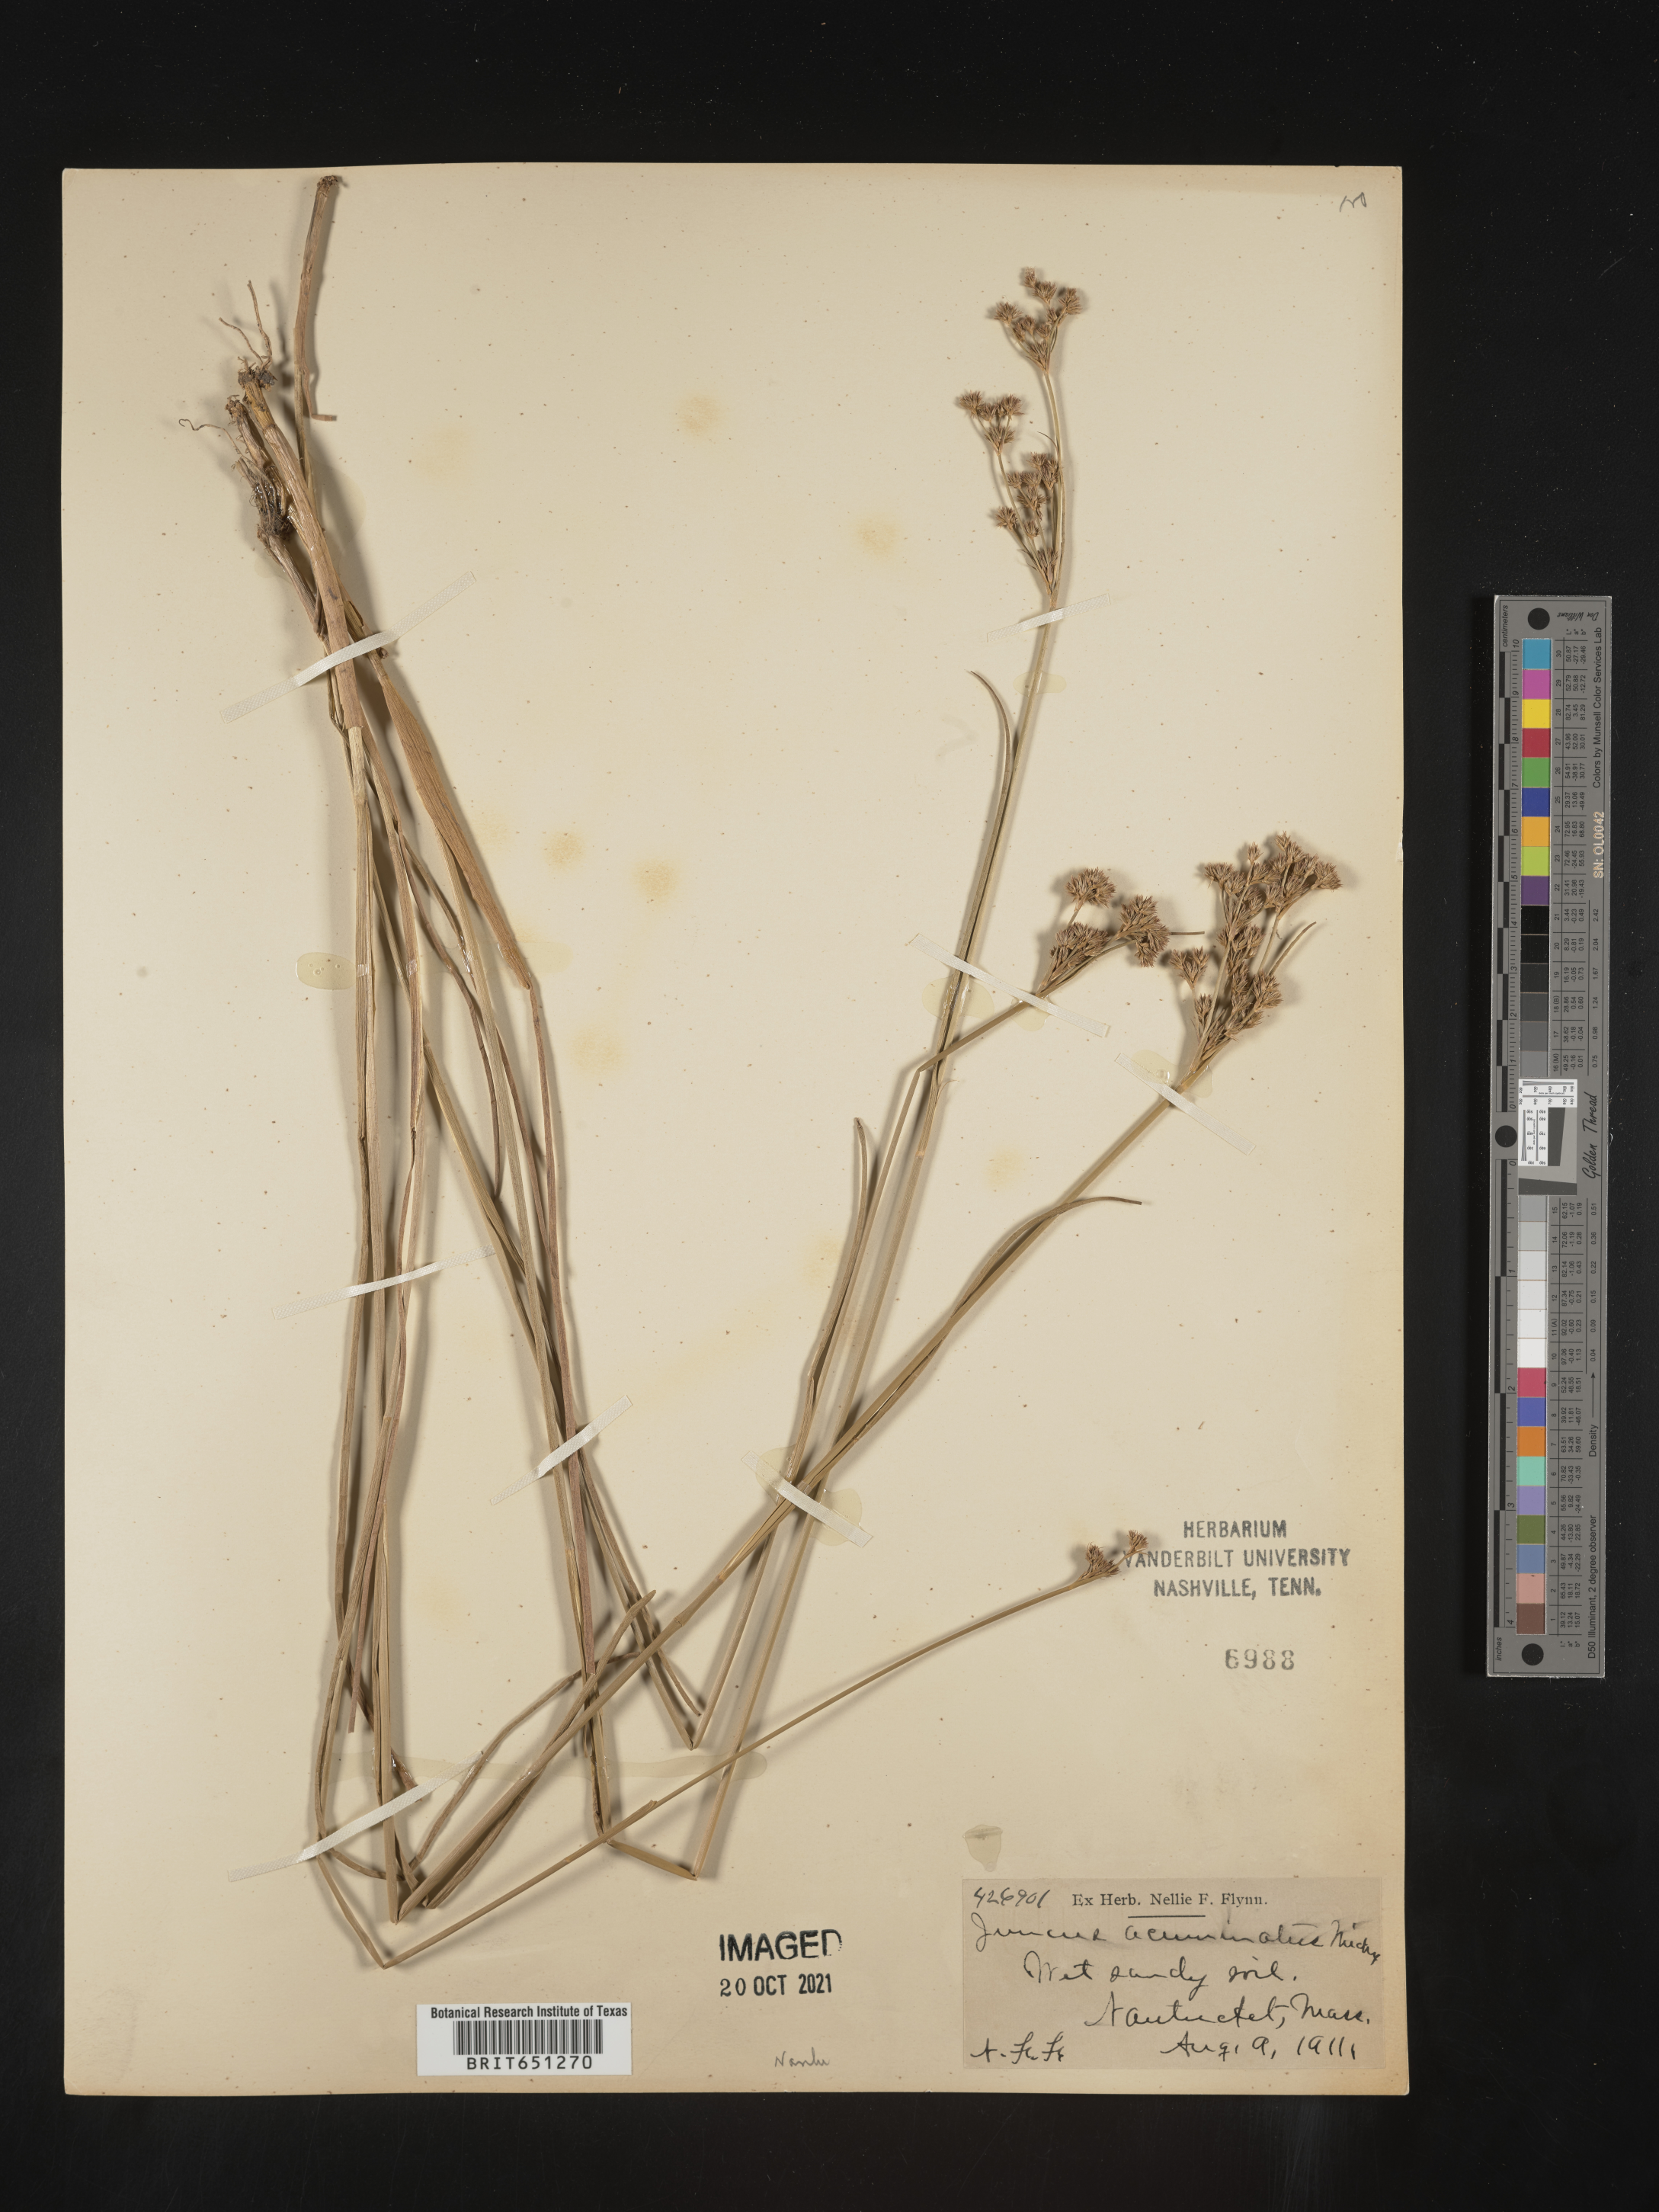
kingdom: Plantae
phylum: Tracheophyta
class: Liliopsida
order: Poales
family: Juncaceae
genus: Juncus
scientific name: Juncus acuminatus
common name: Knotty-leaved rush
